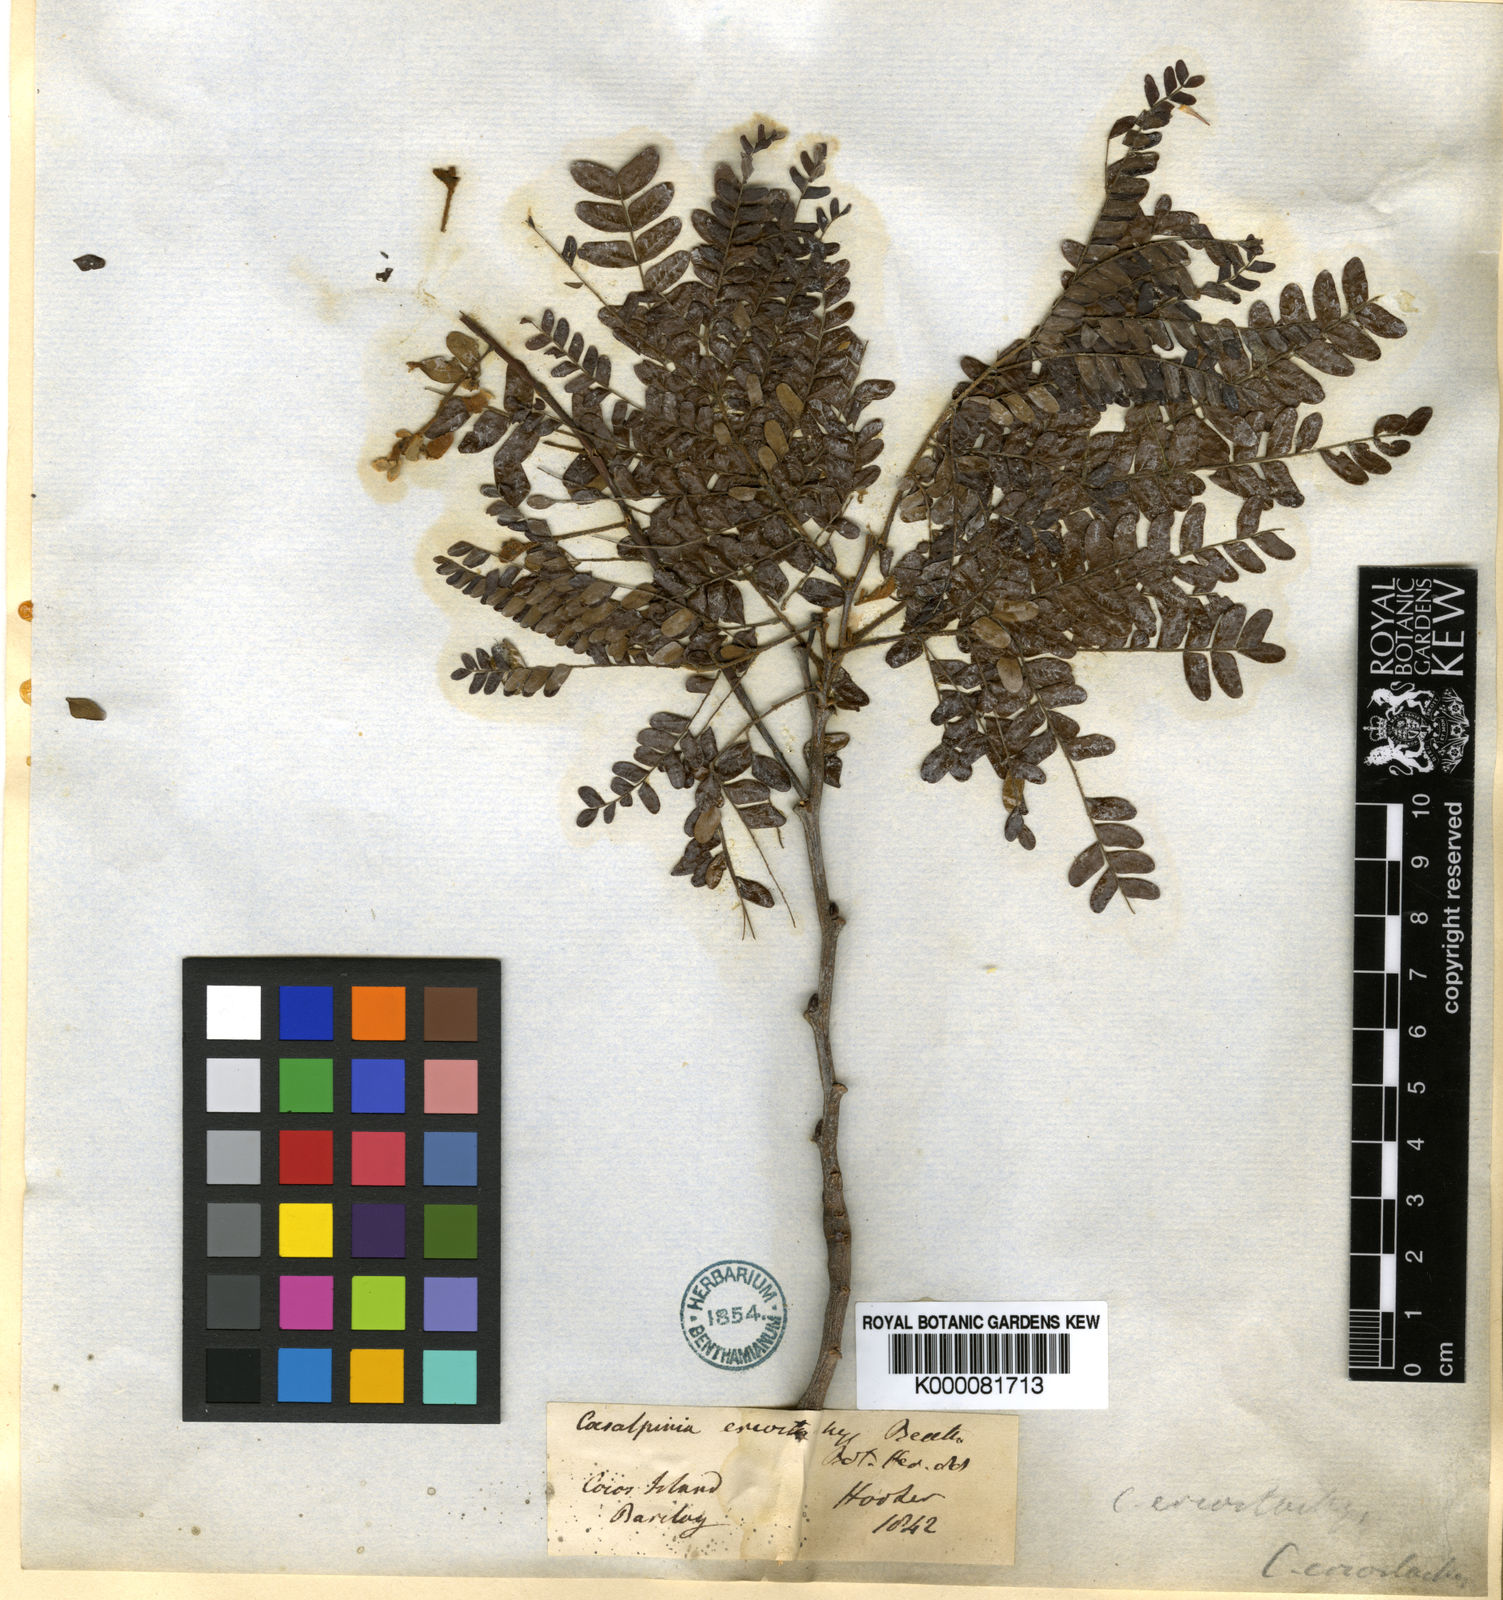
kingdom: Plantae
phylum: Tracheophyta
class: Magnoliopsida
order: Fabales
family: Fabaceae
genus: Cenostigma
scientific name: Cenostigma eriostachys
